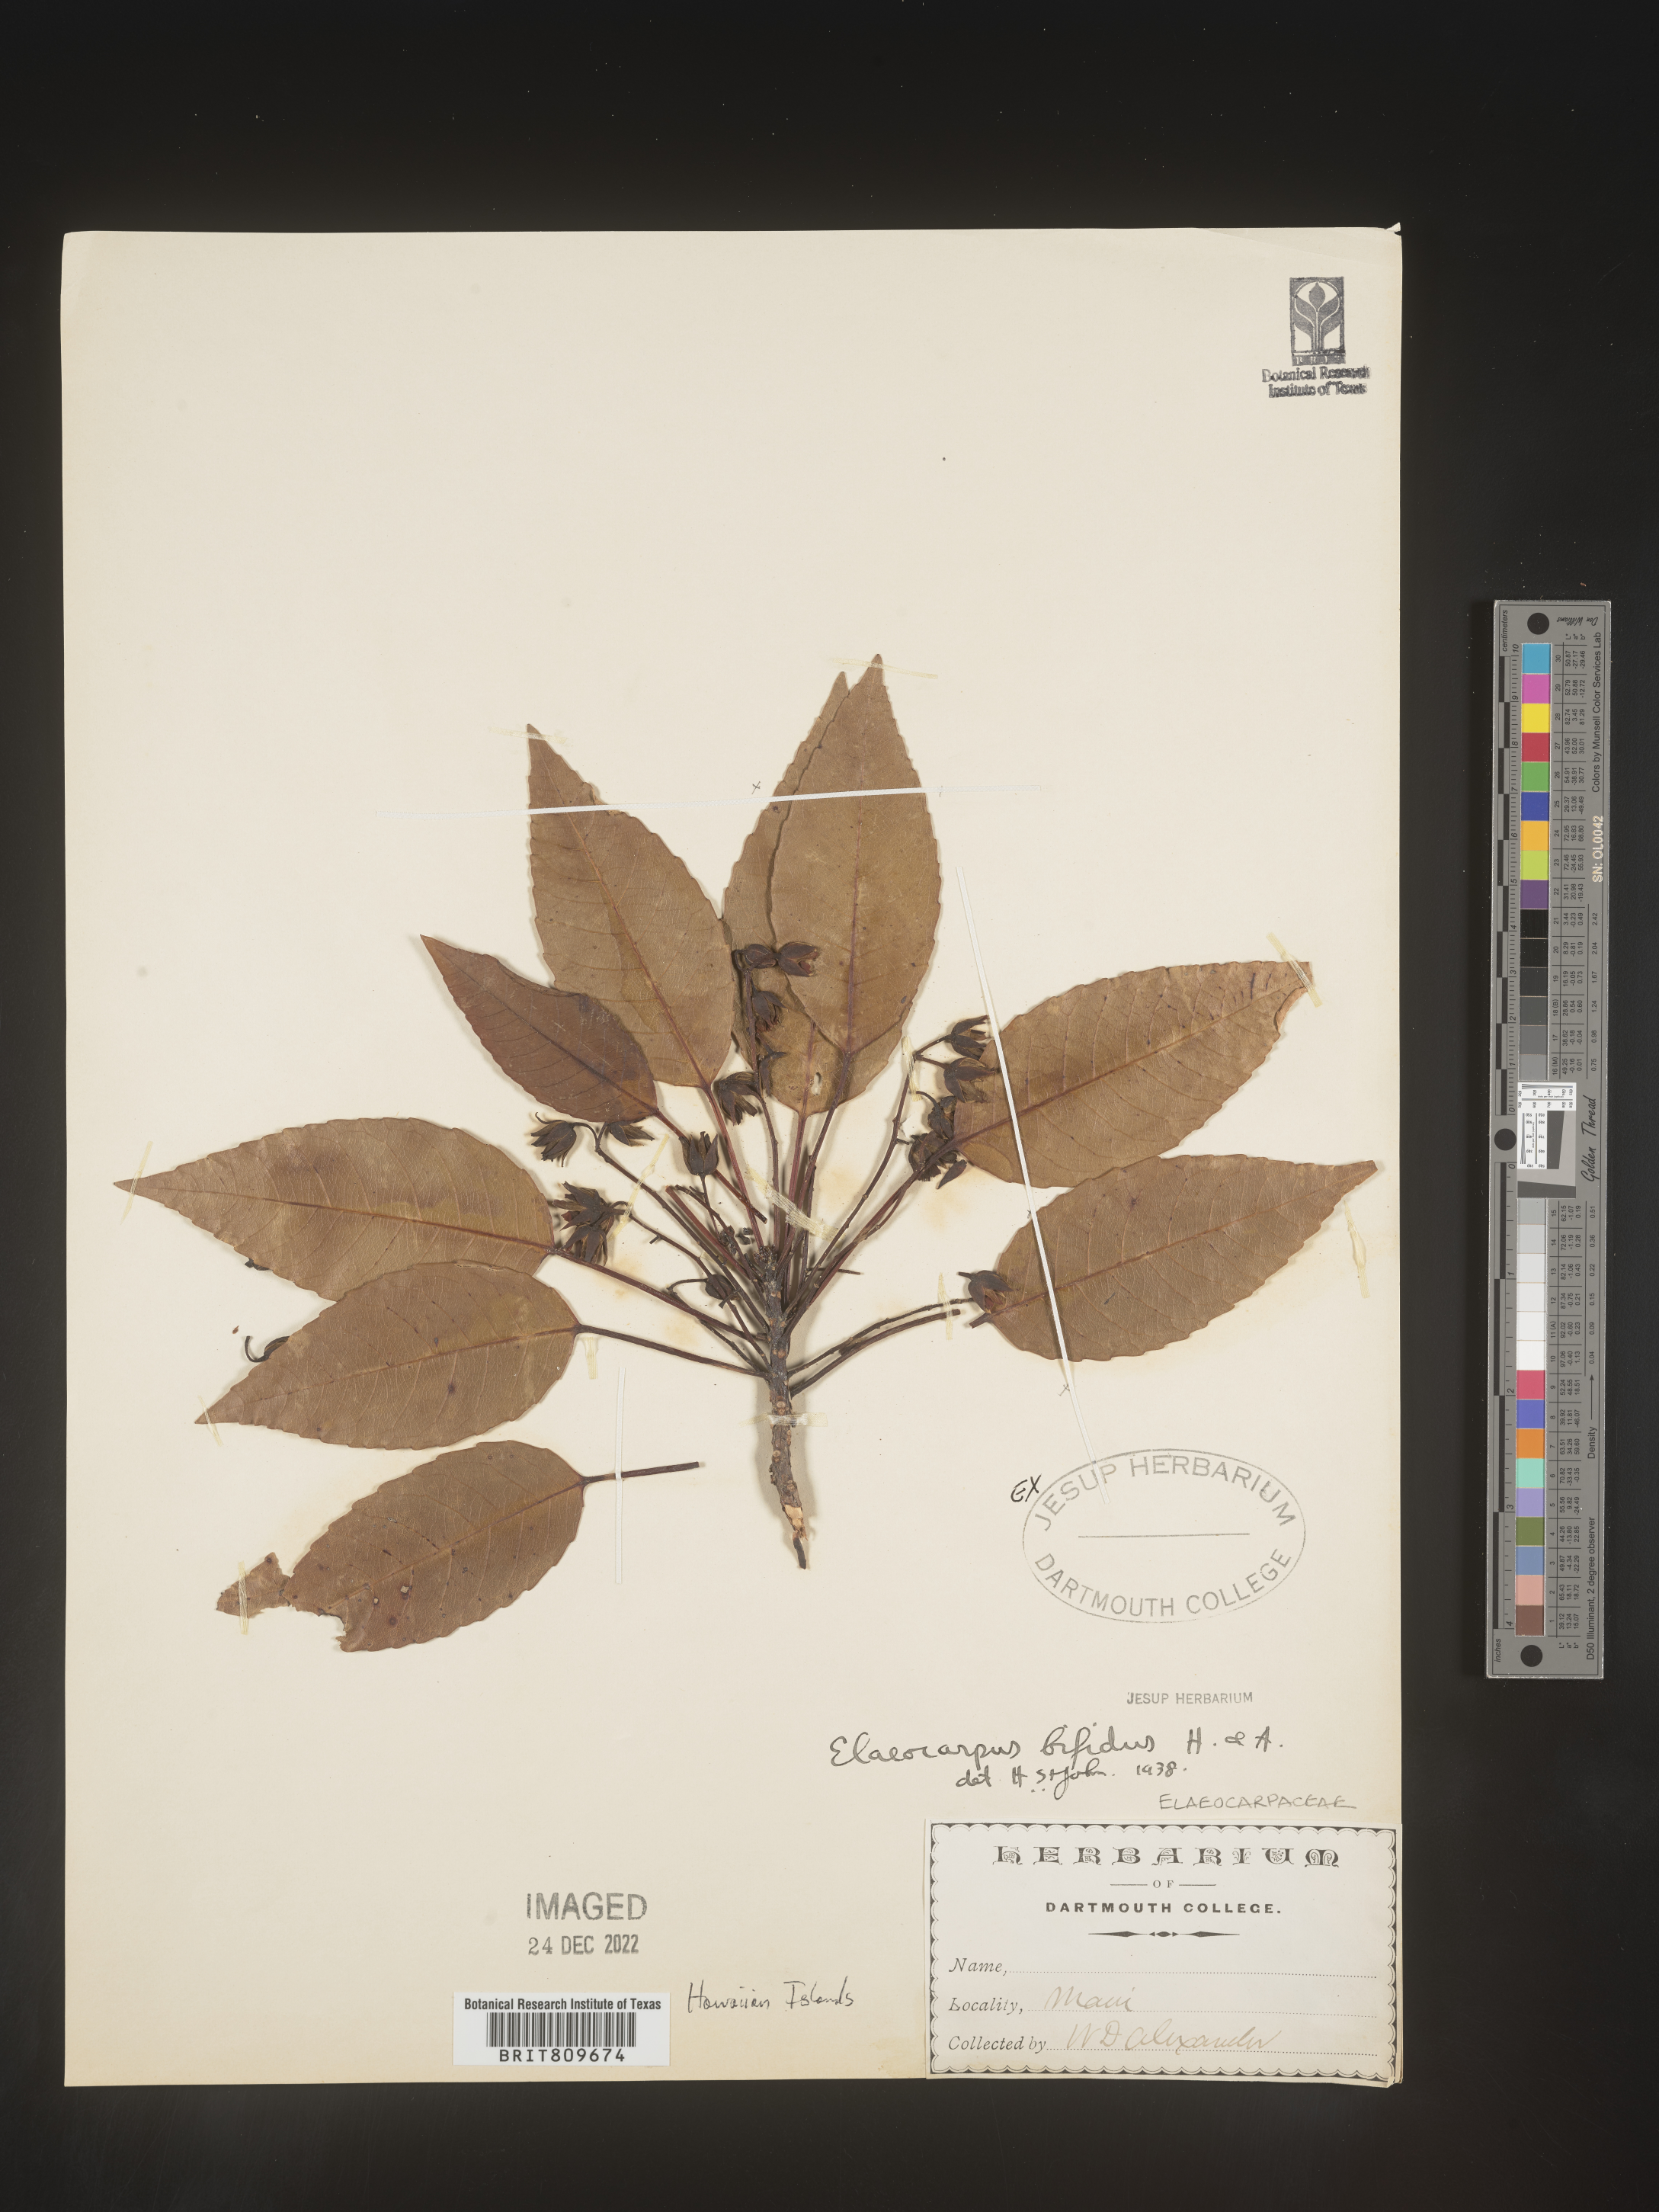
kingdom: Plantae
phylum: Tracheophyta
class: Magnoliopsida
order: Oxalidales
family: Elaeocarpaceae
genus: Elaeocarpus
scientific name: Elaeocarpus
